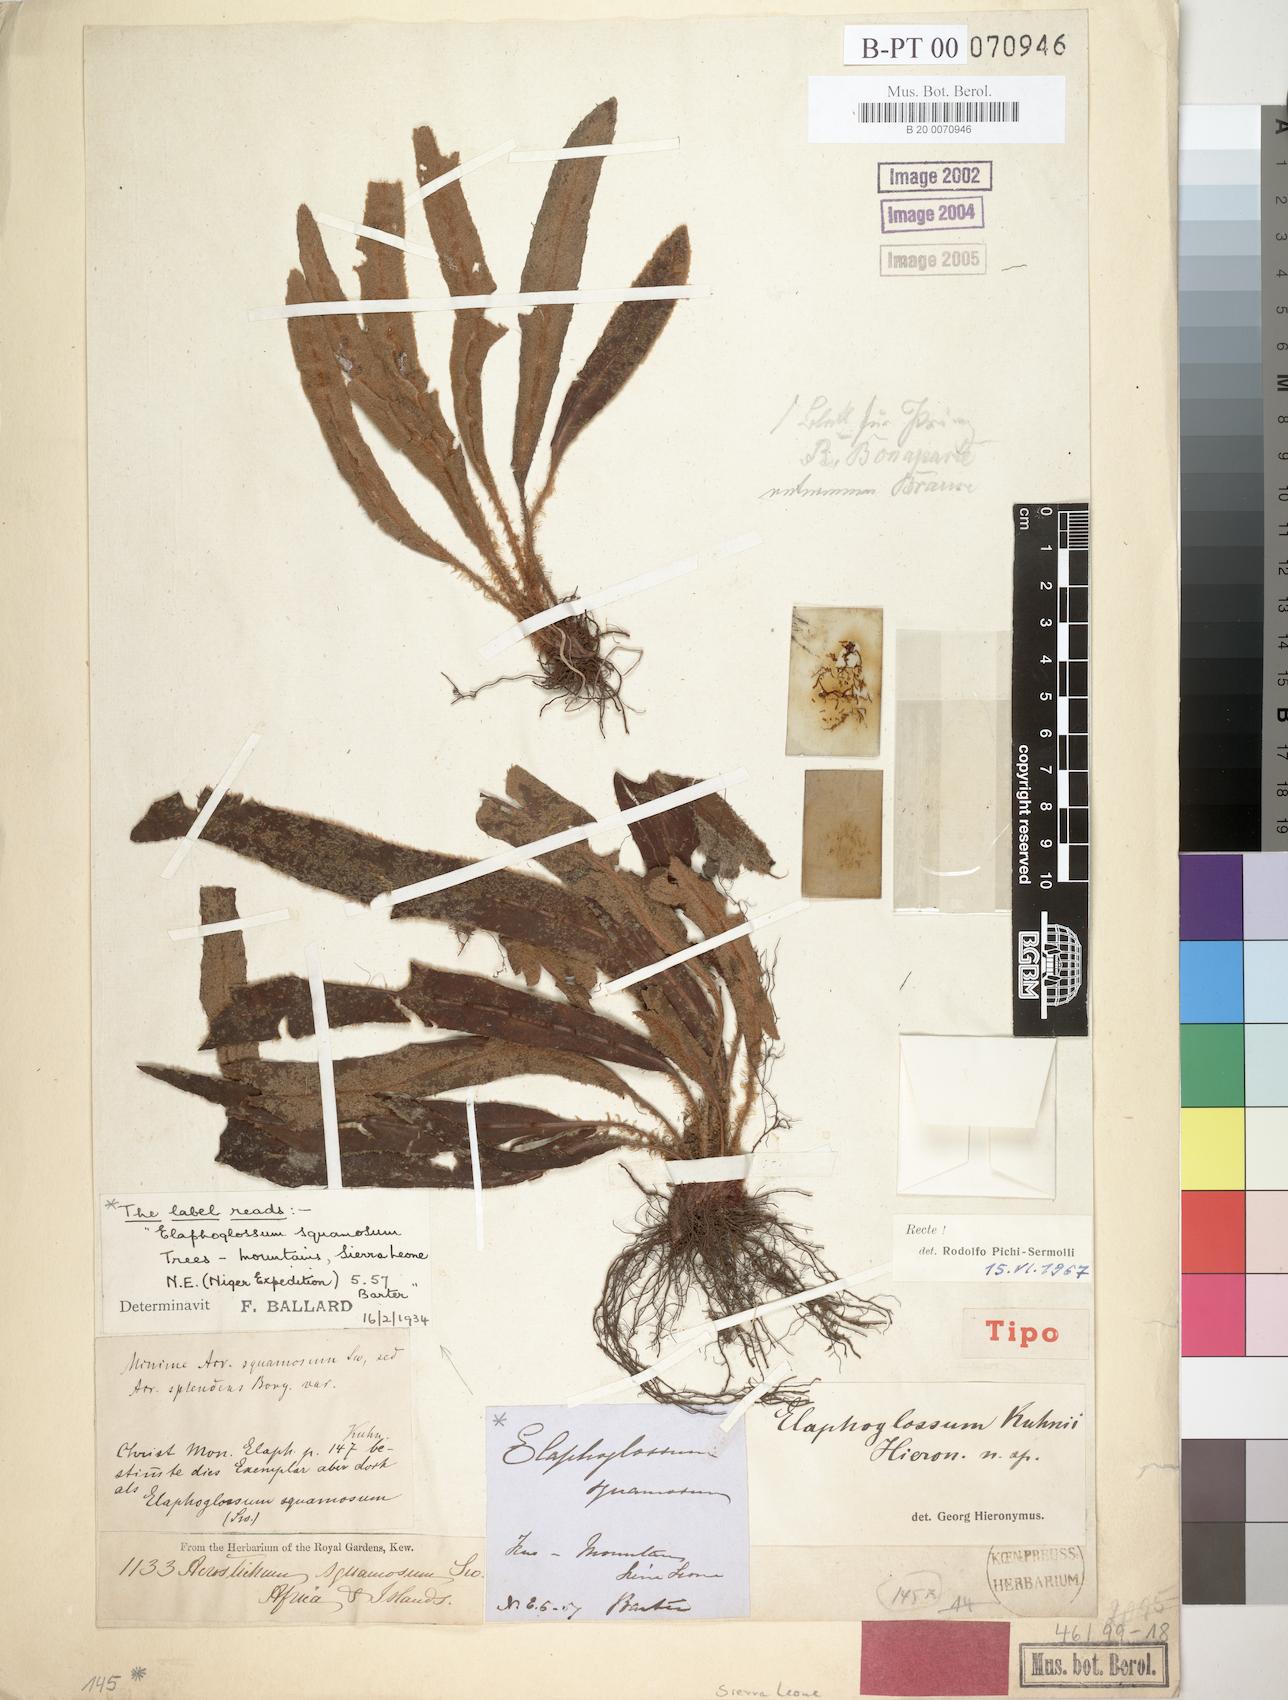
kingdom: Plantae
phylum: Tracheophyta
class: Polypodiopsida
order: Polypodiales
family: Dryopteridaceae
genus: Elaphoglossum
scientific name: Elaphoglossum kuhnii
